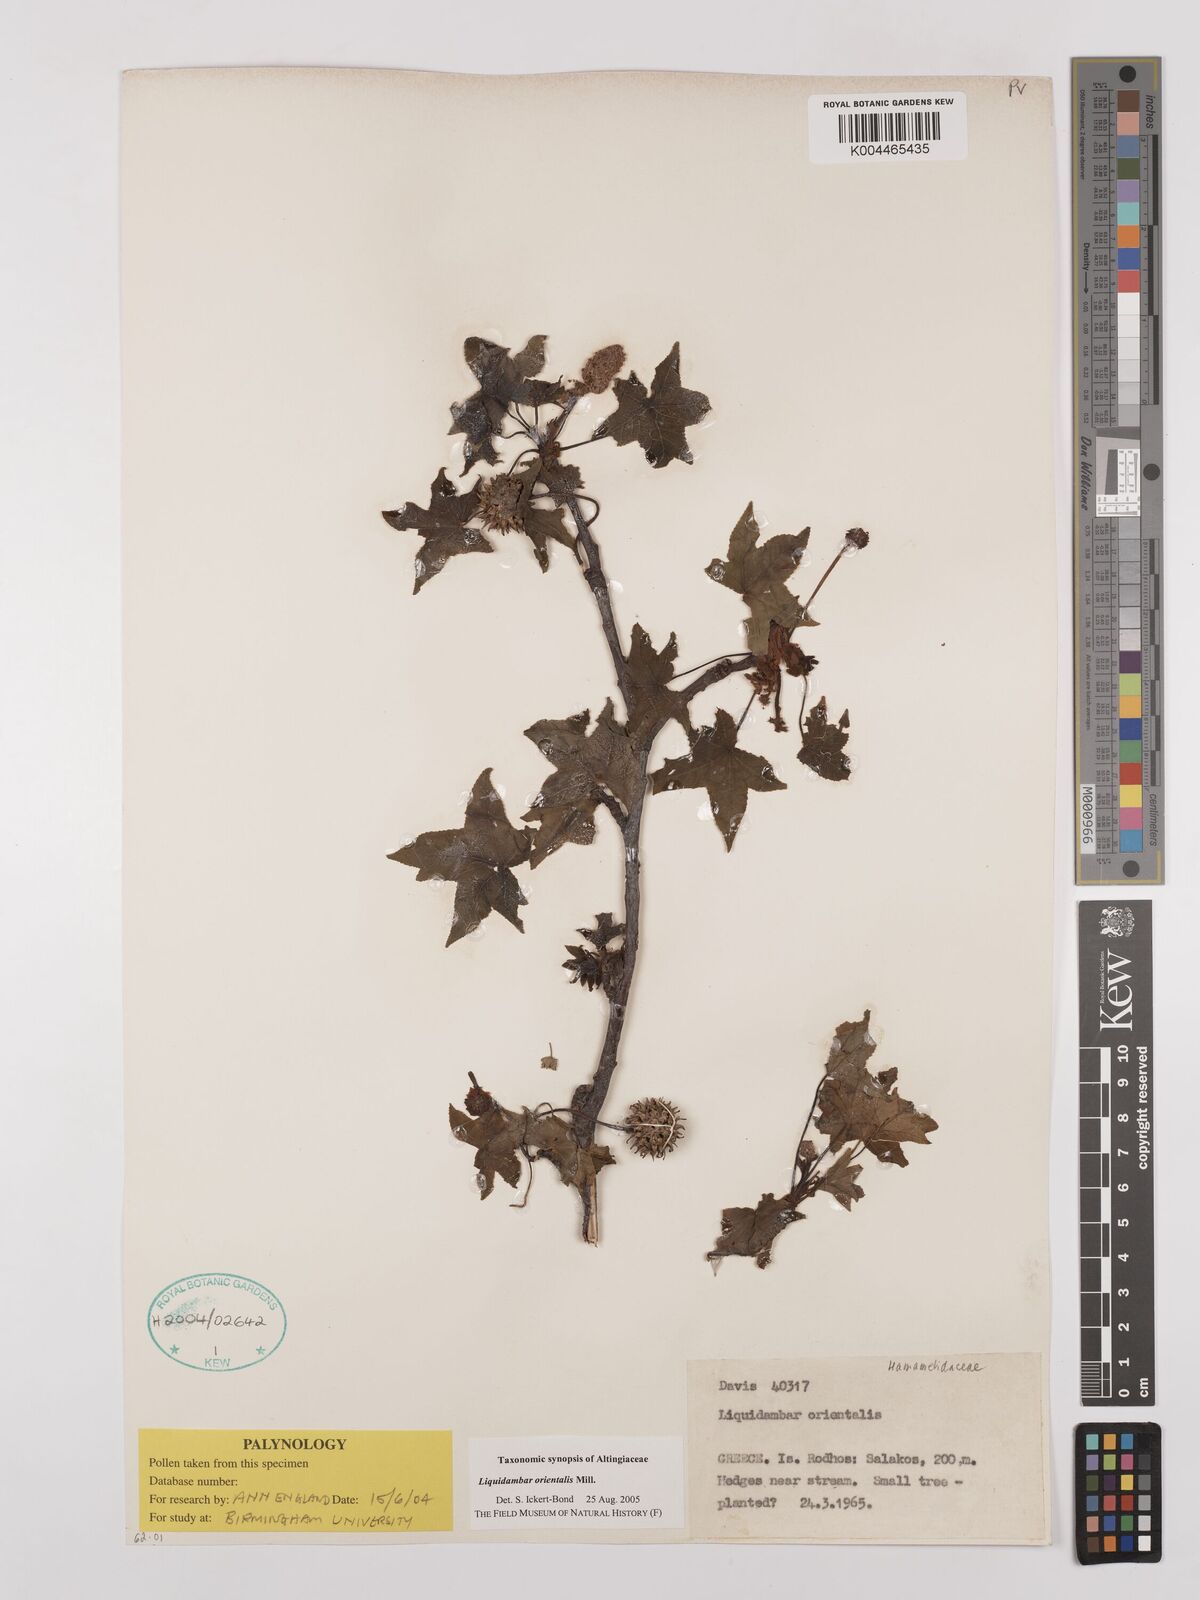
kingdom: Plantae
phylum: Tracheophyta
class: Magnoliopsida
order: Saxifragales
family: Altingiaceae
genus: Liquidambar
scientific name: Liquidambar orientalis
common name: Oriental sweetgum
